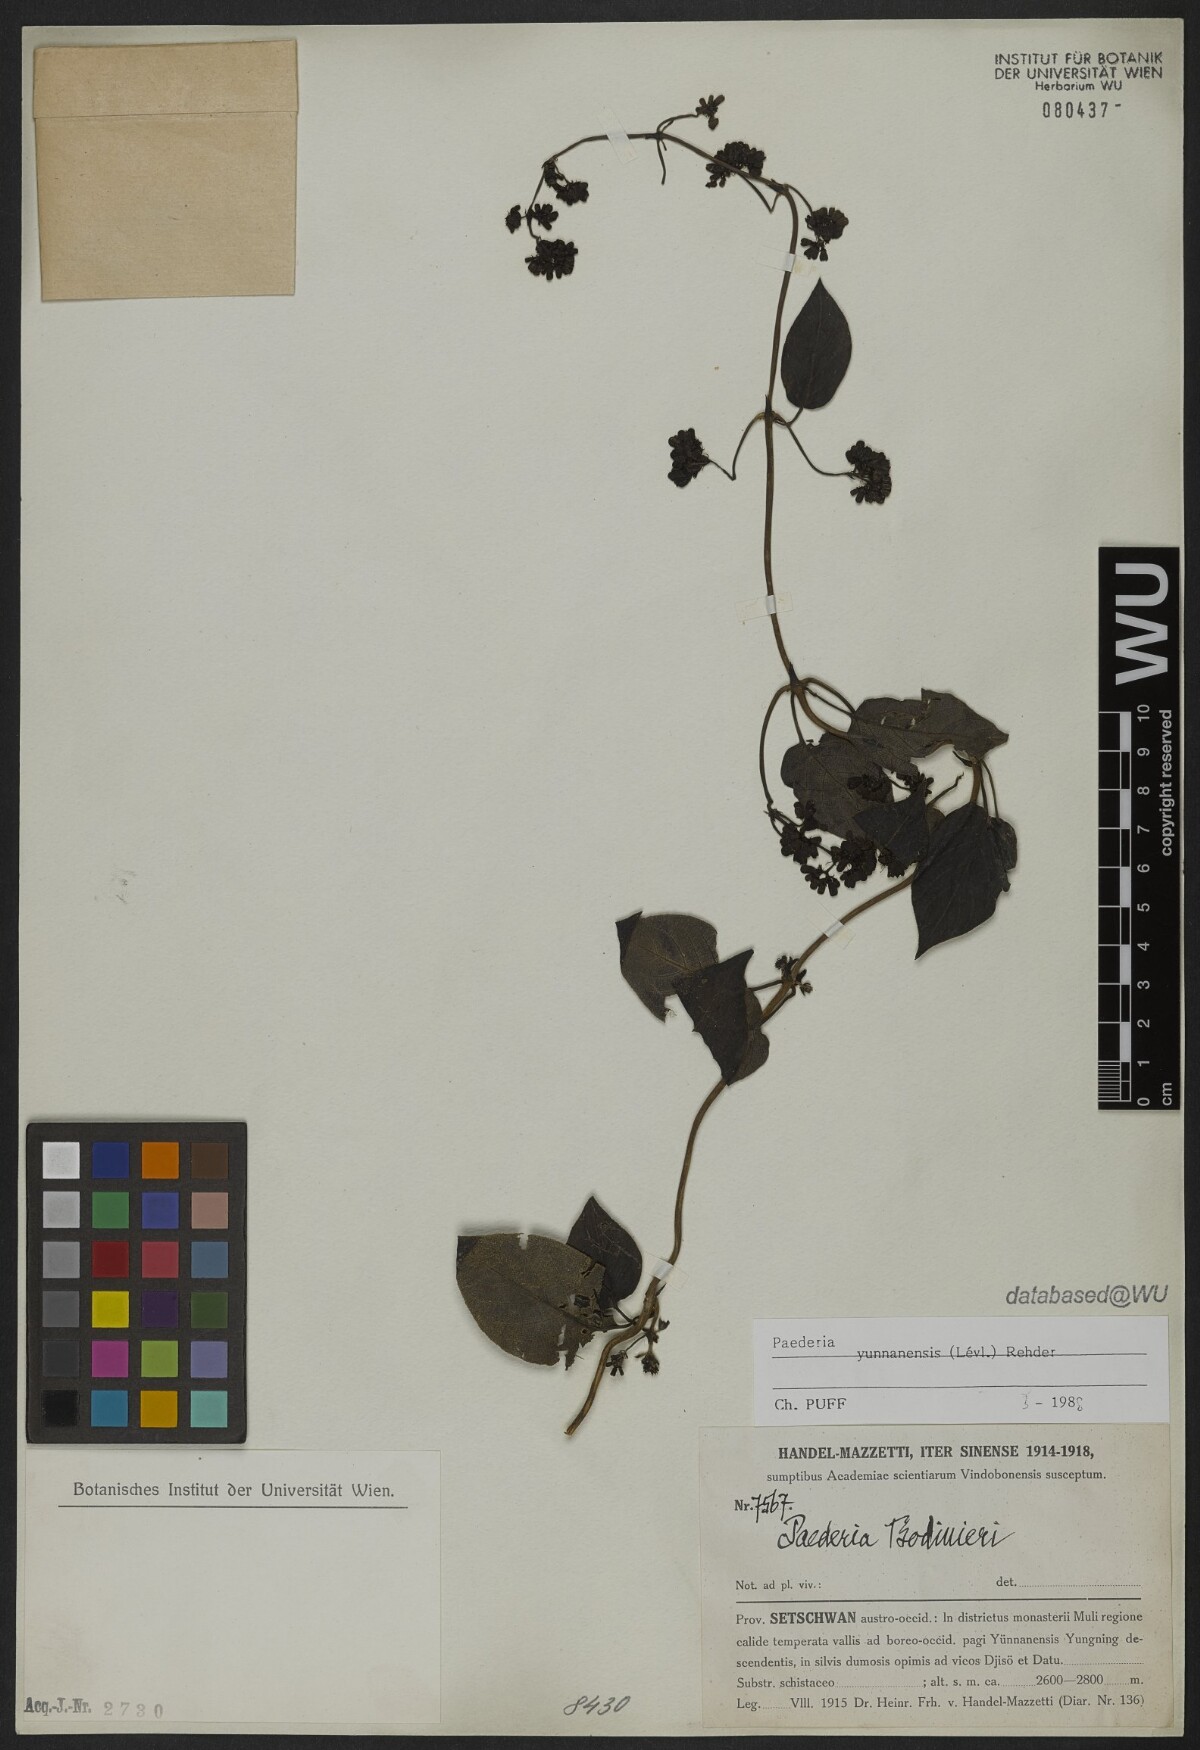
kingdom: Plantae
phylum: Tracheophyta
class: Magnoliopsida
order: Gentianales
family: Rubiaceae
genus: Paederia
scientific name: Paederia yunnanensis
